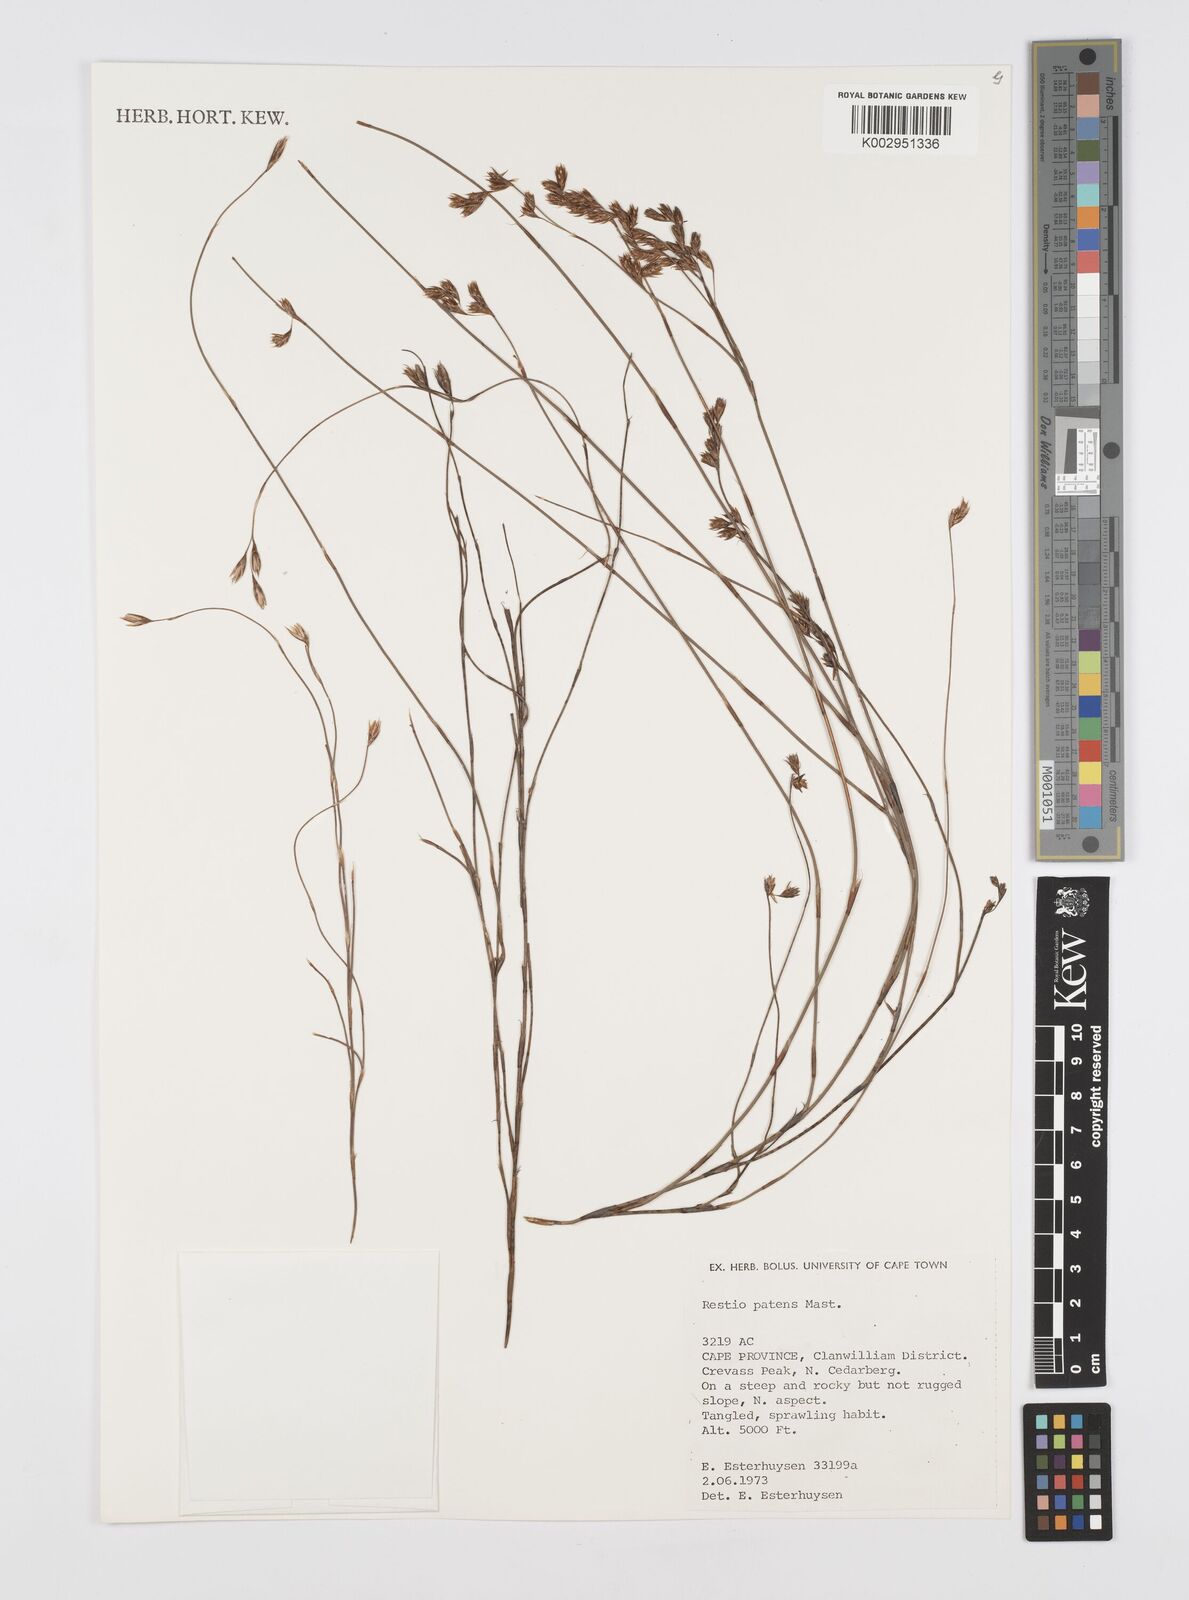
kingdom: Plantae
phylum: Tracheophyta
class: Liliopsida
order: Poales
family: Restionaceae
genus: Restio
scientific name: Restio patens
